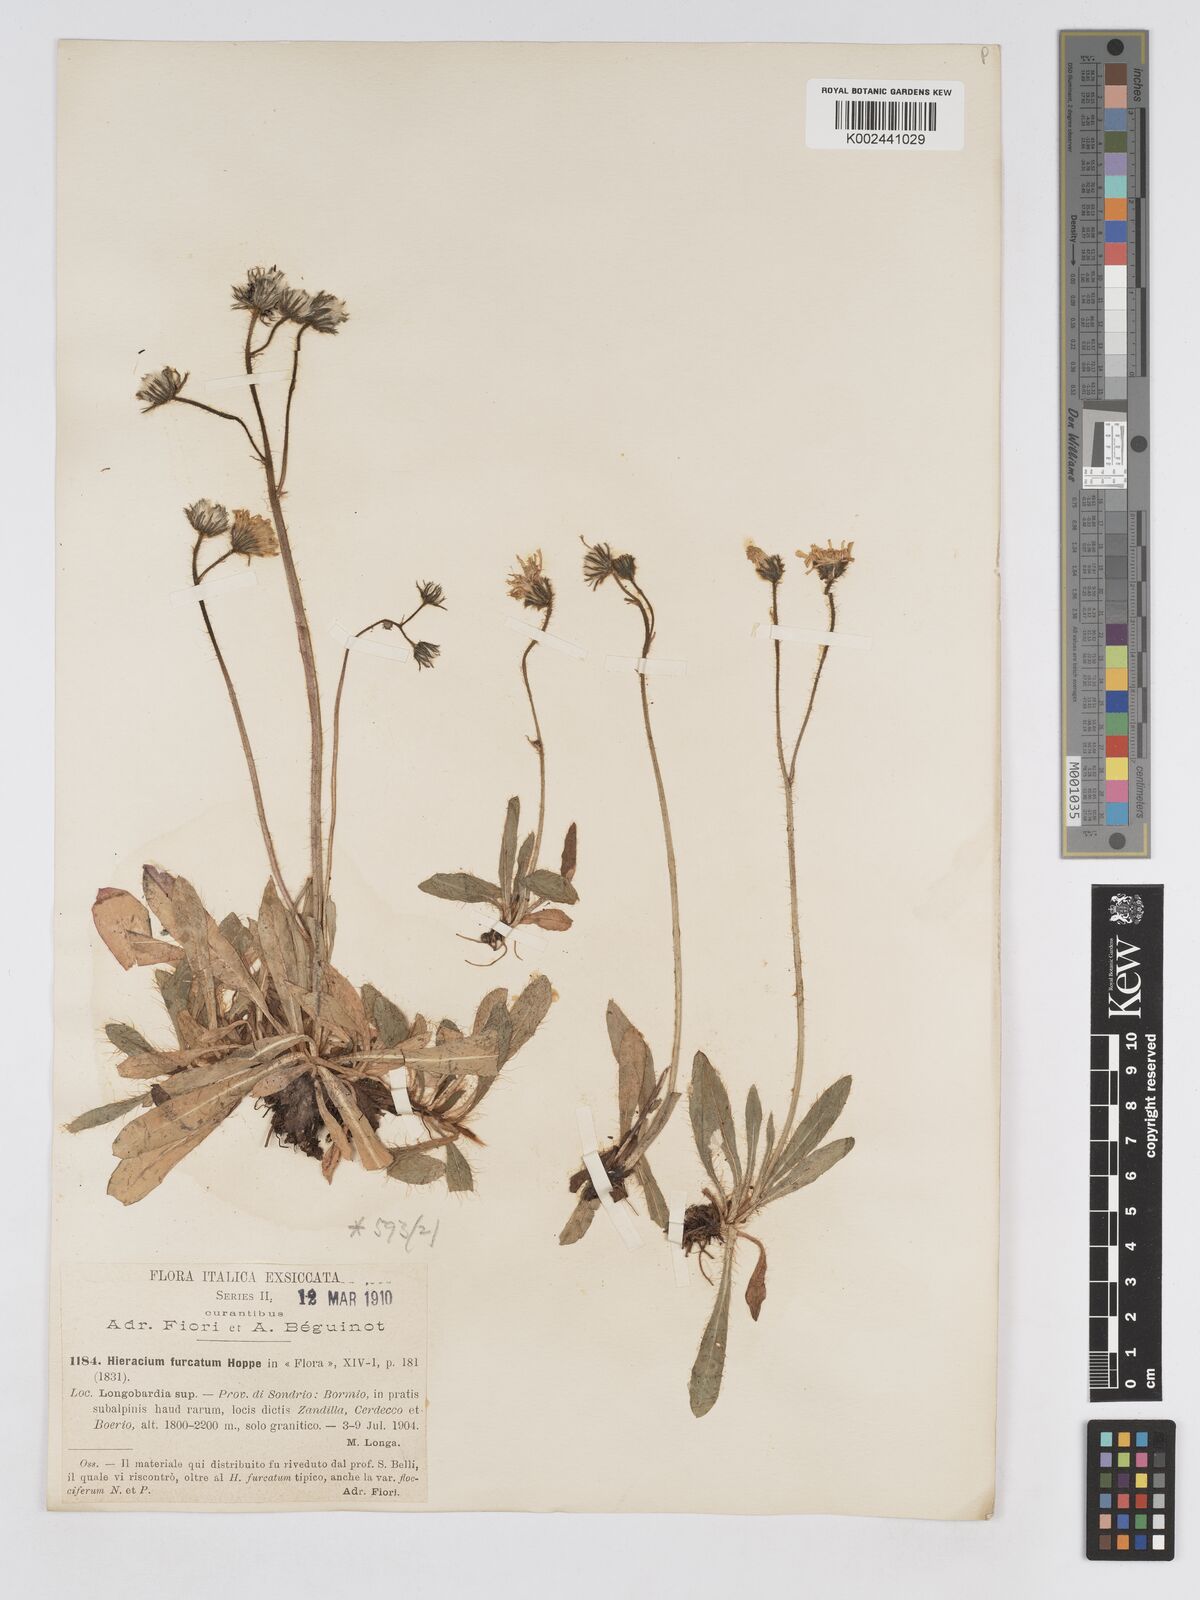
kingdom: Plantae
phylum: Tracheophyta
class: Magnoliopsida
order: Asterales
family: Asteraceae
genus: Pilosella
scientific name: Pilosella sphaerocephala
